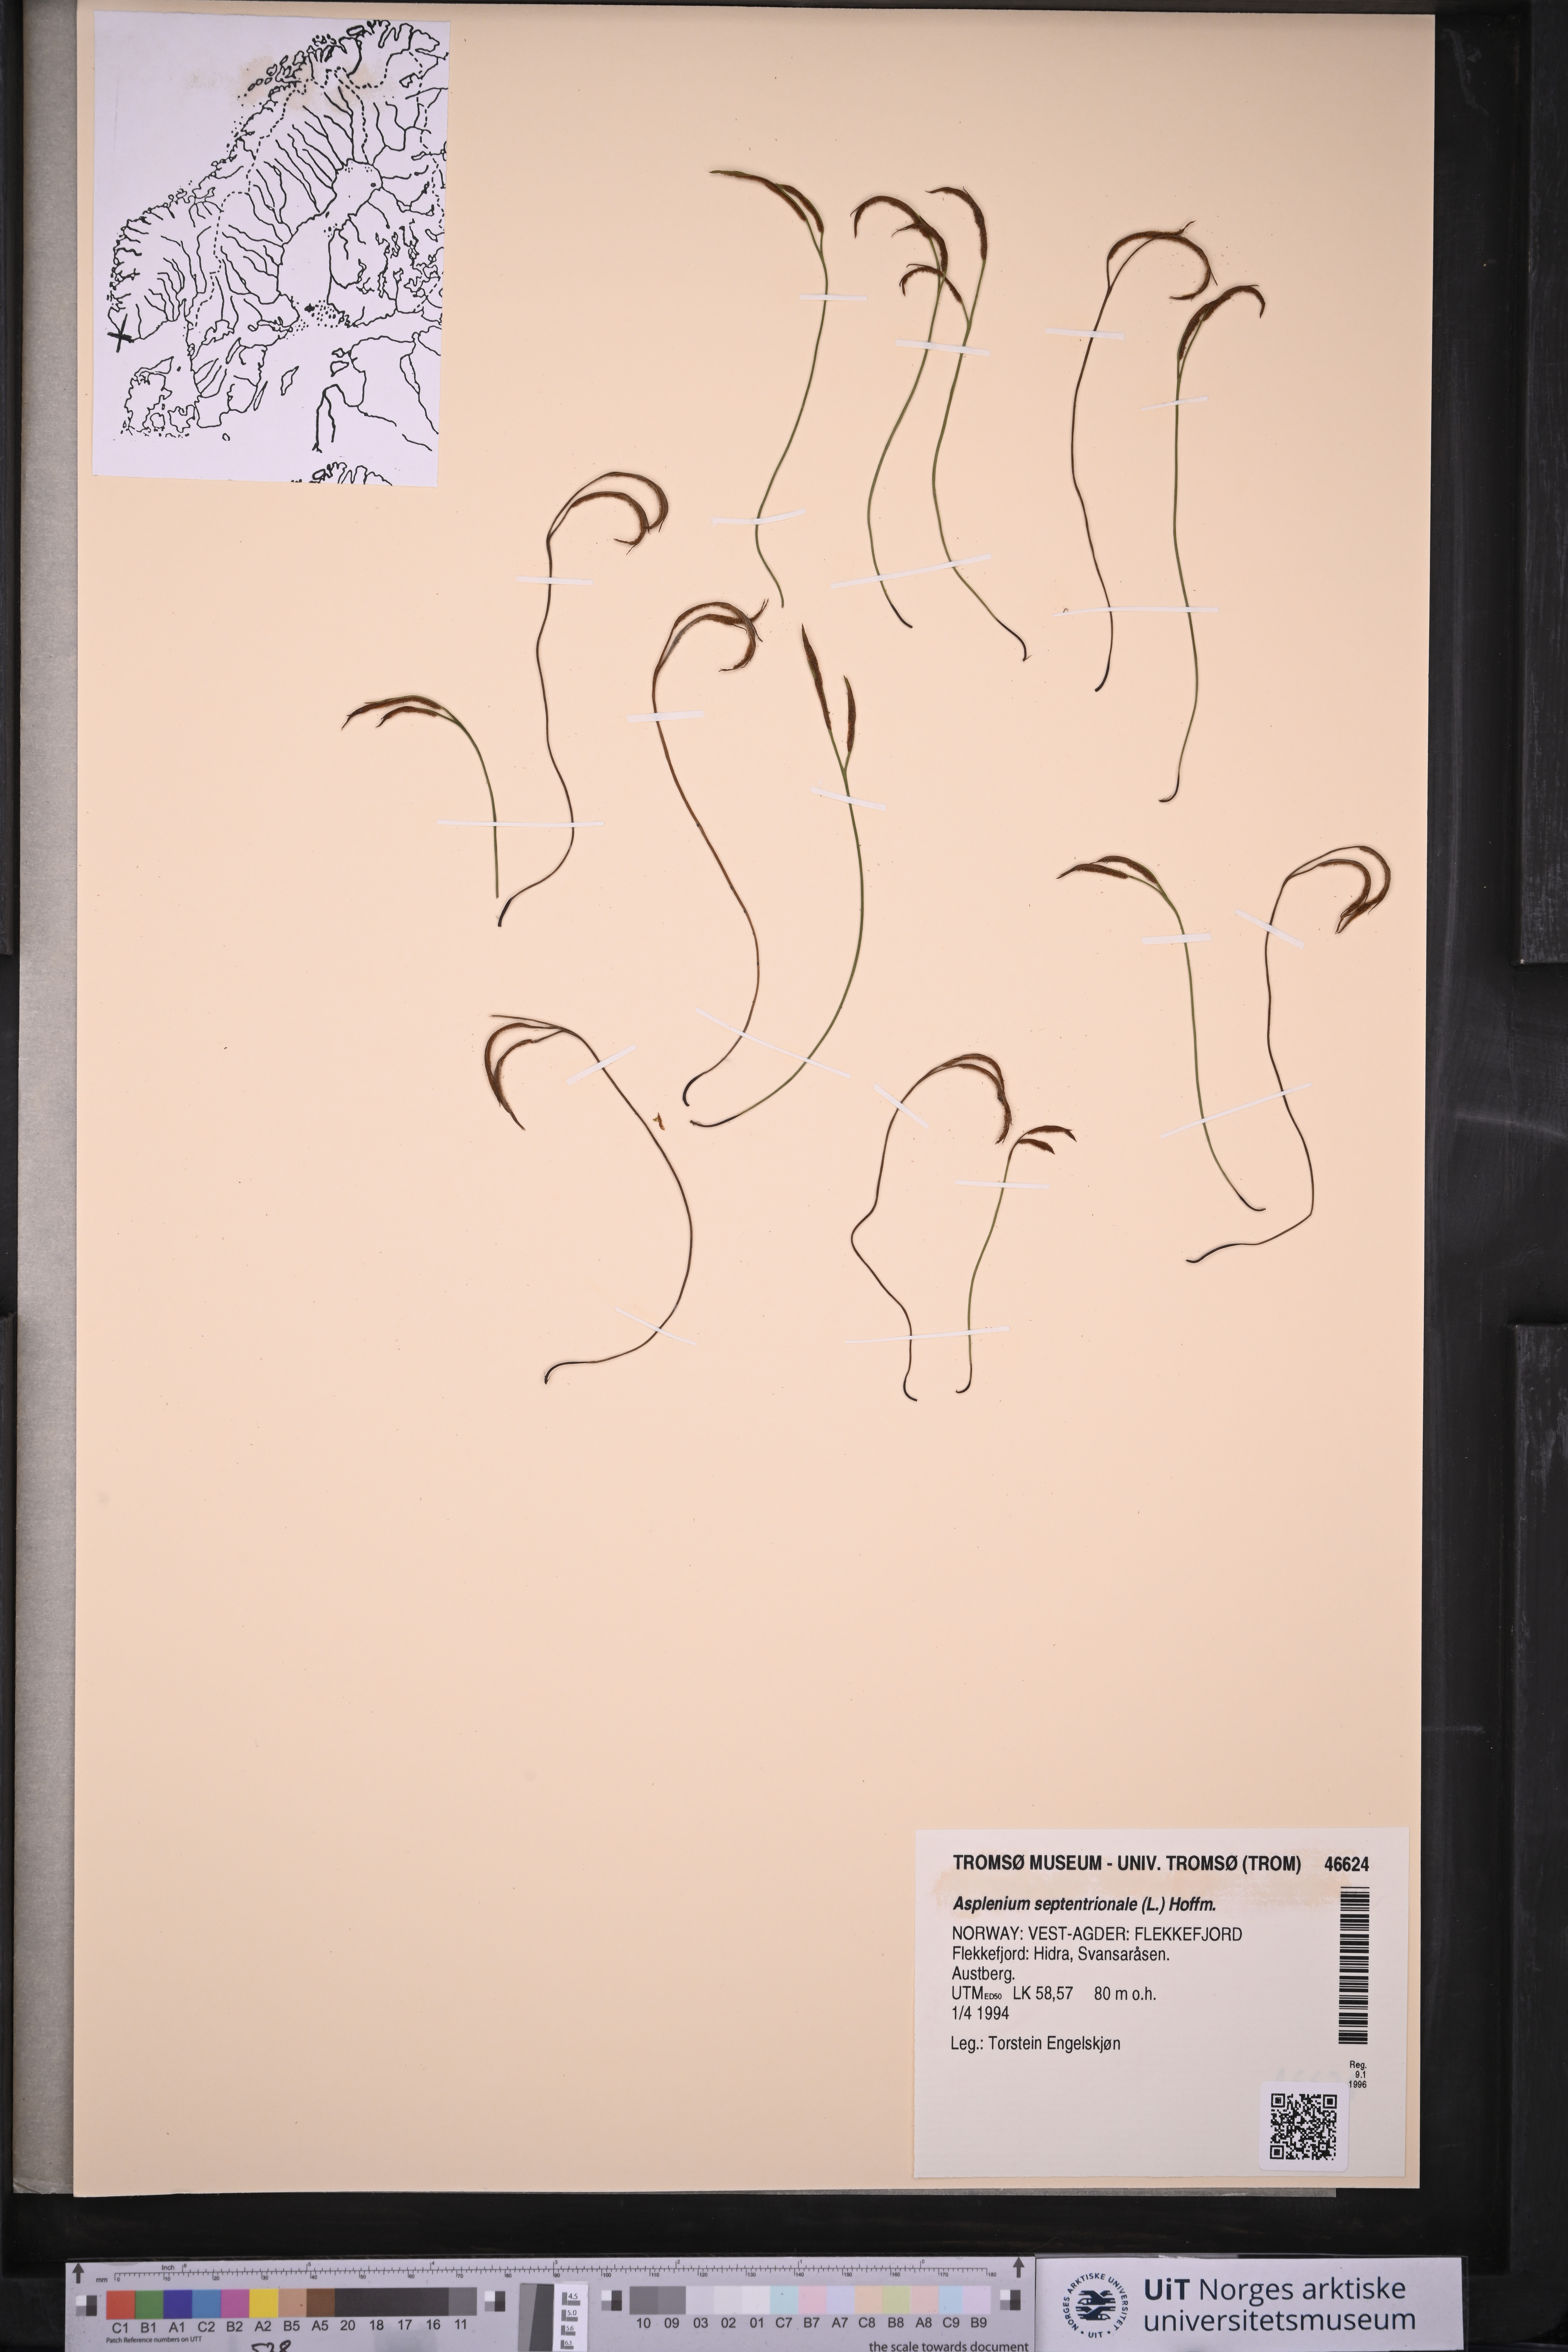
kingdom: Plantae
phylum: Tracheophyta
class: Polypodiopsida
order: Polypodiales
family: Aspleniaceae
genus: Asplenium
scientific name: Asplenium septentrionale
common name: Forked spleenwort
